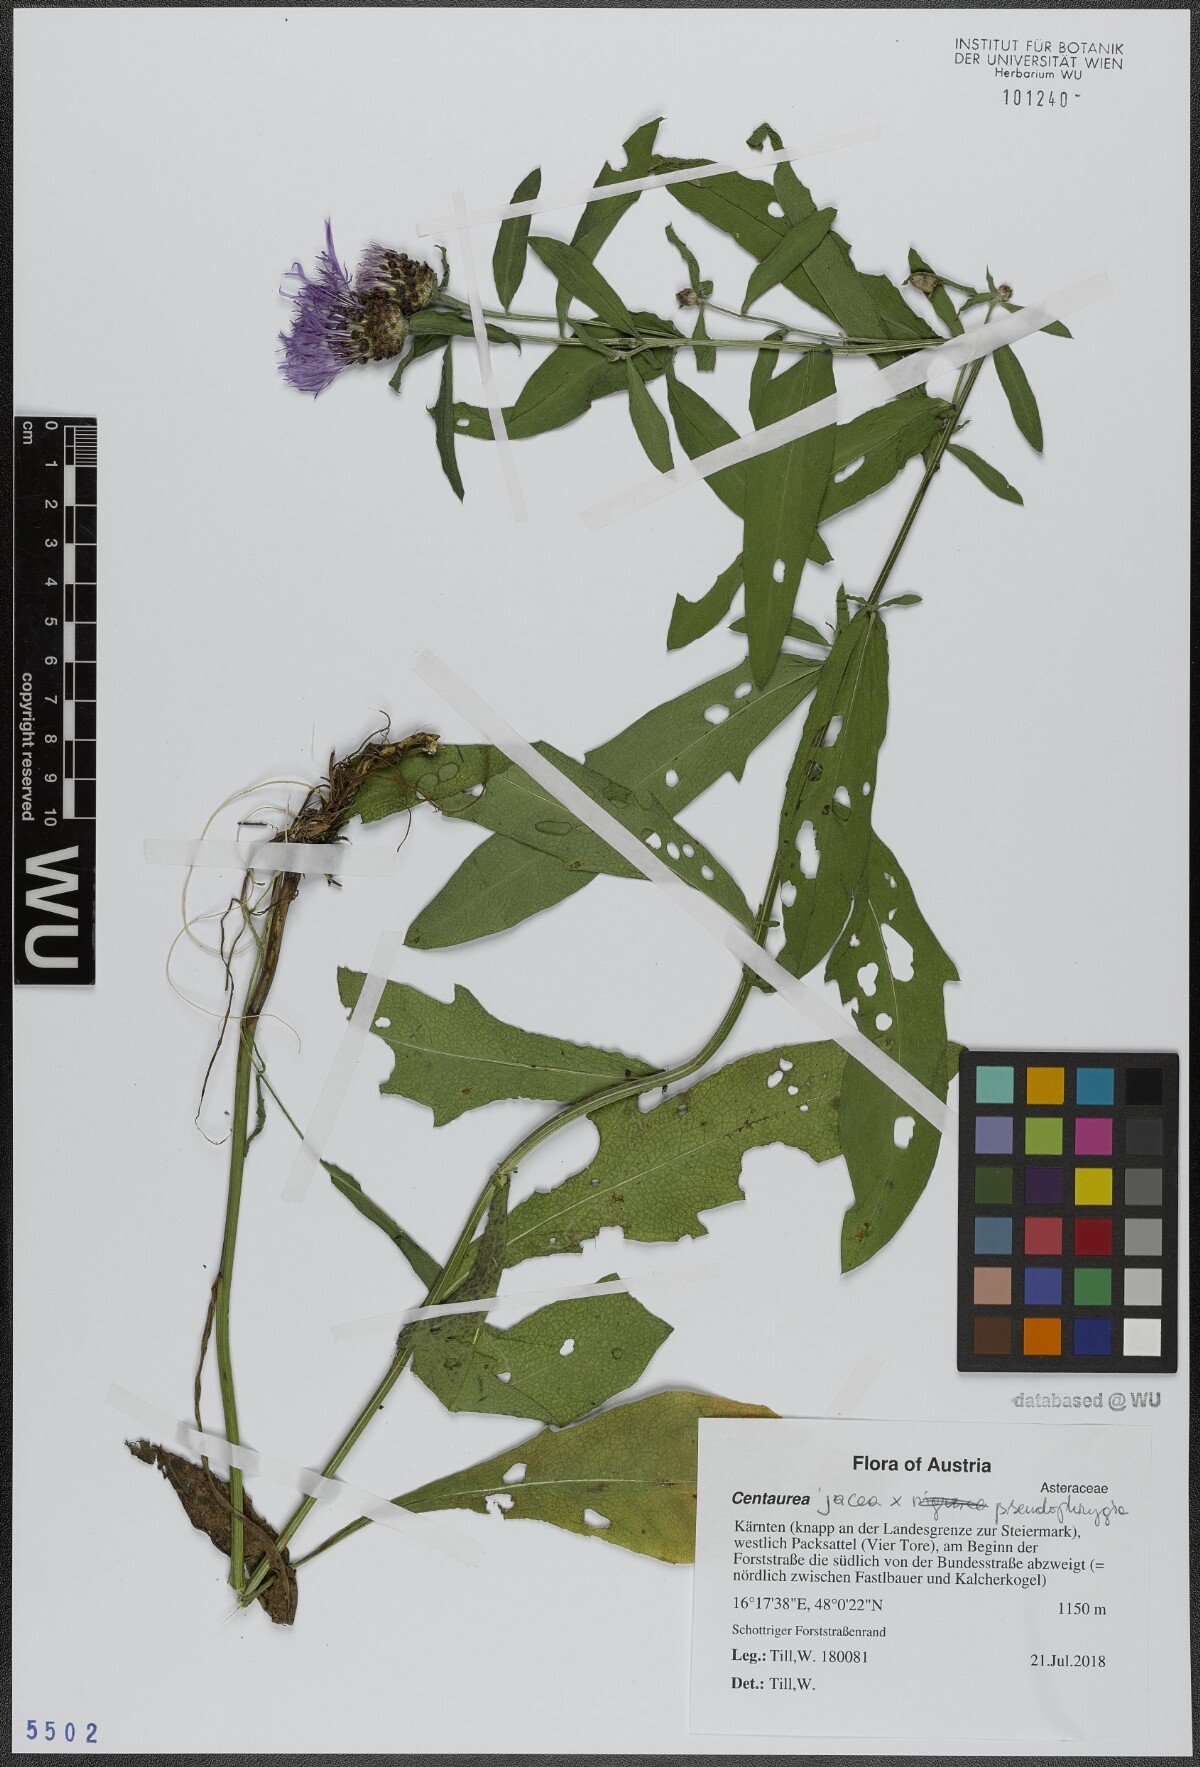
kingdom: Plantae
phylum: Tracheophyta
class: Magnoliopsida
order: Asterales
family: Asteraceae
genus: Centaurea
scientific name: Centaurea
